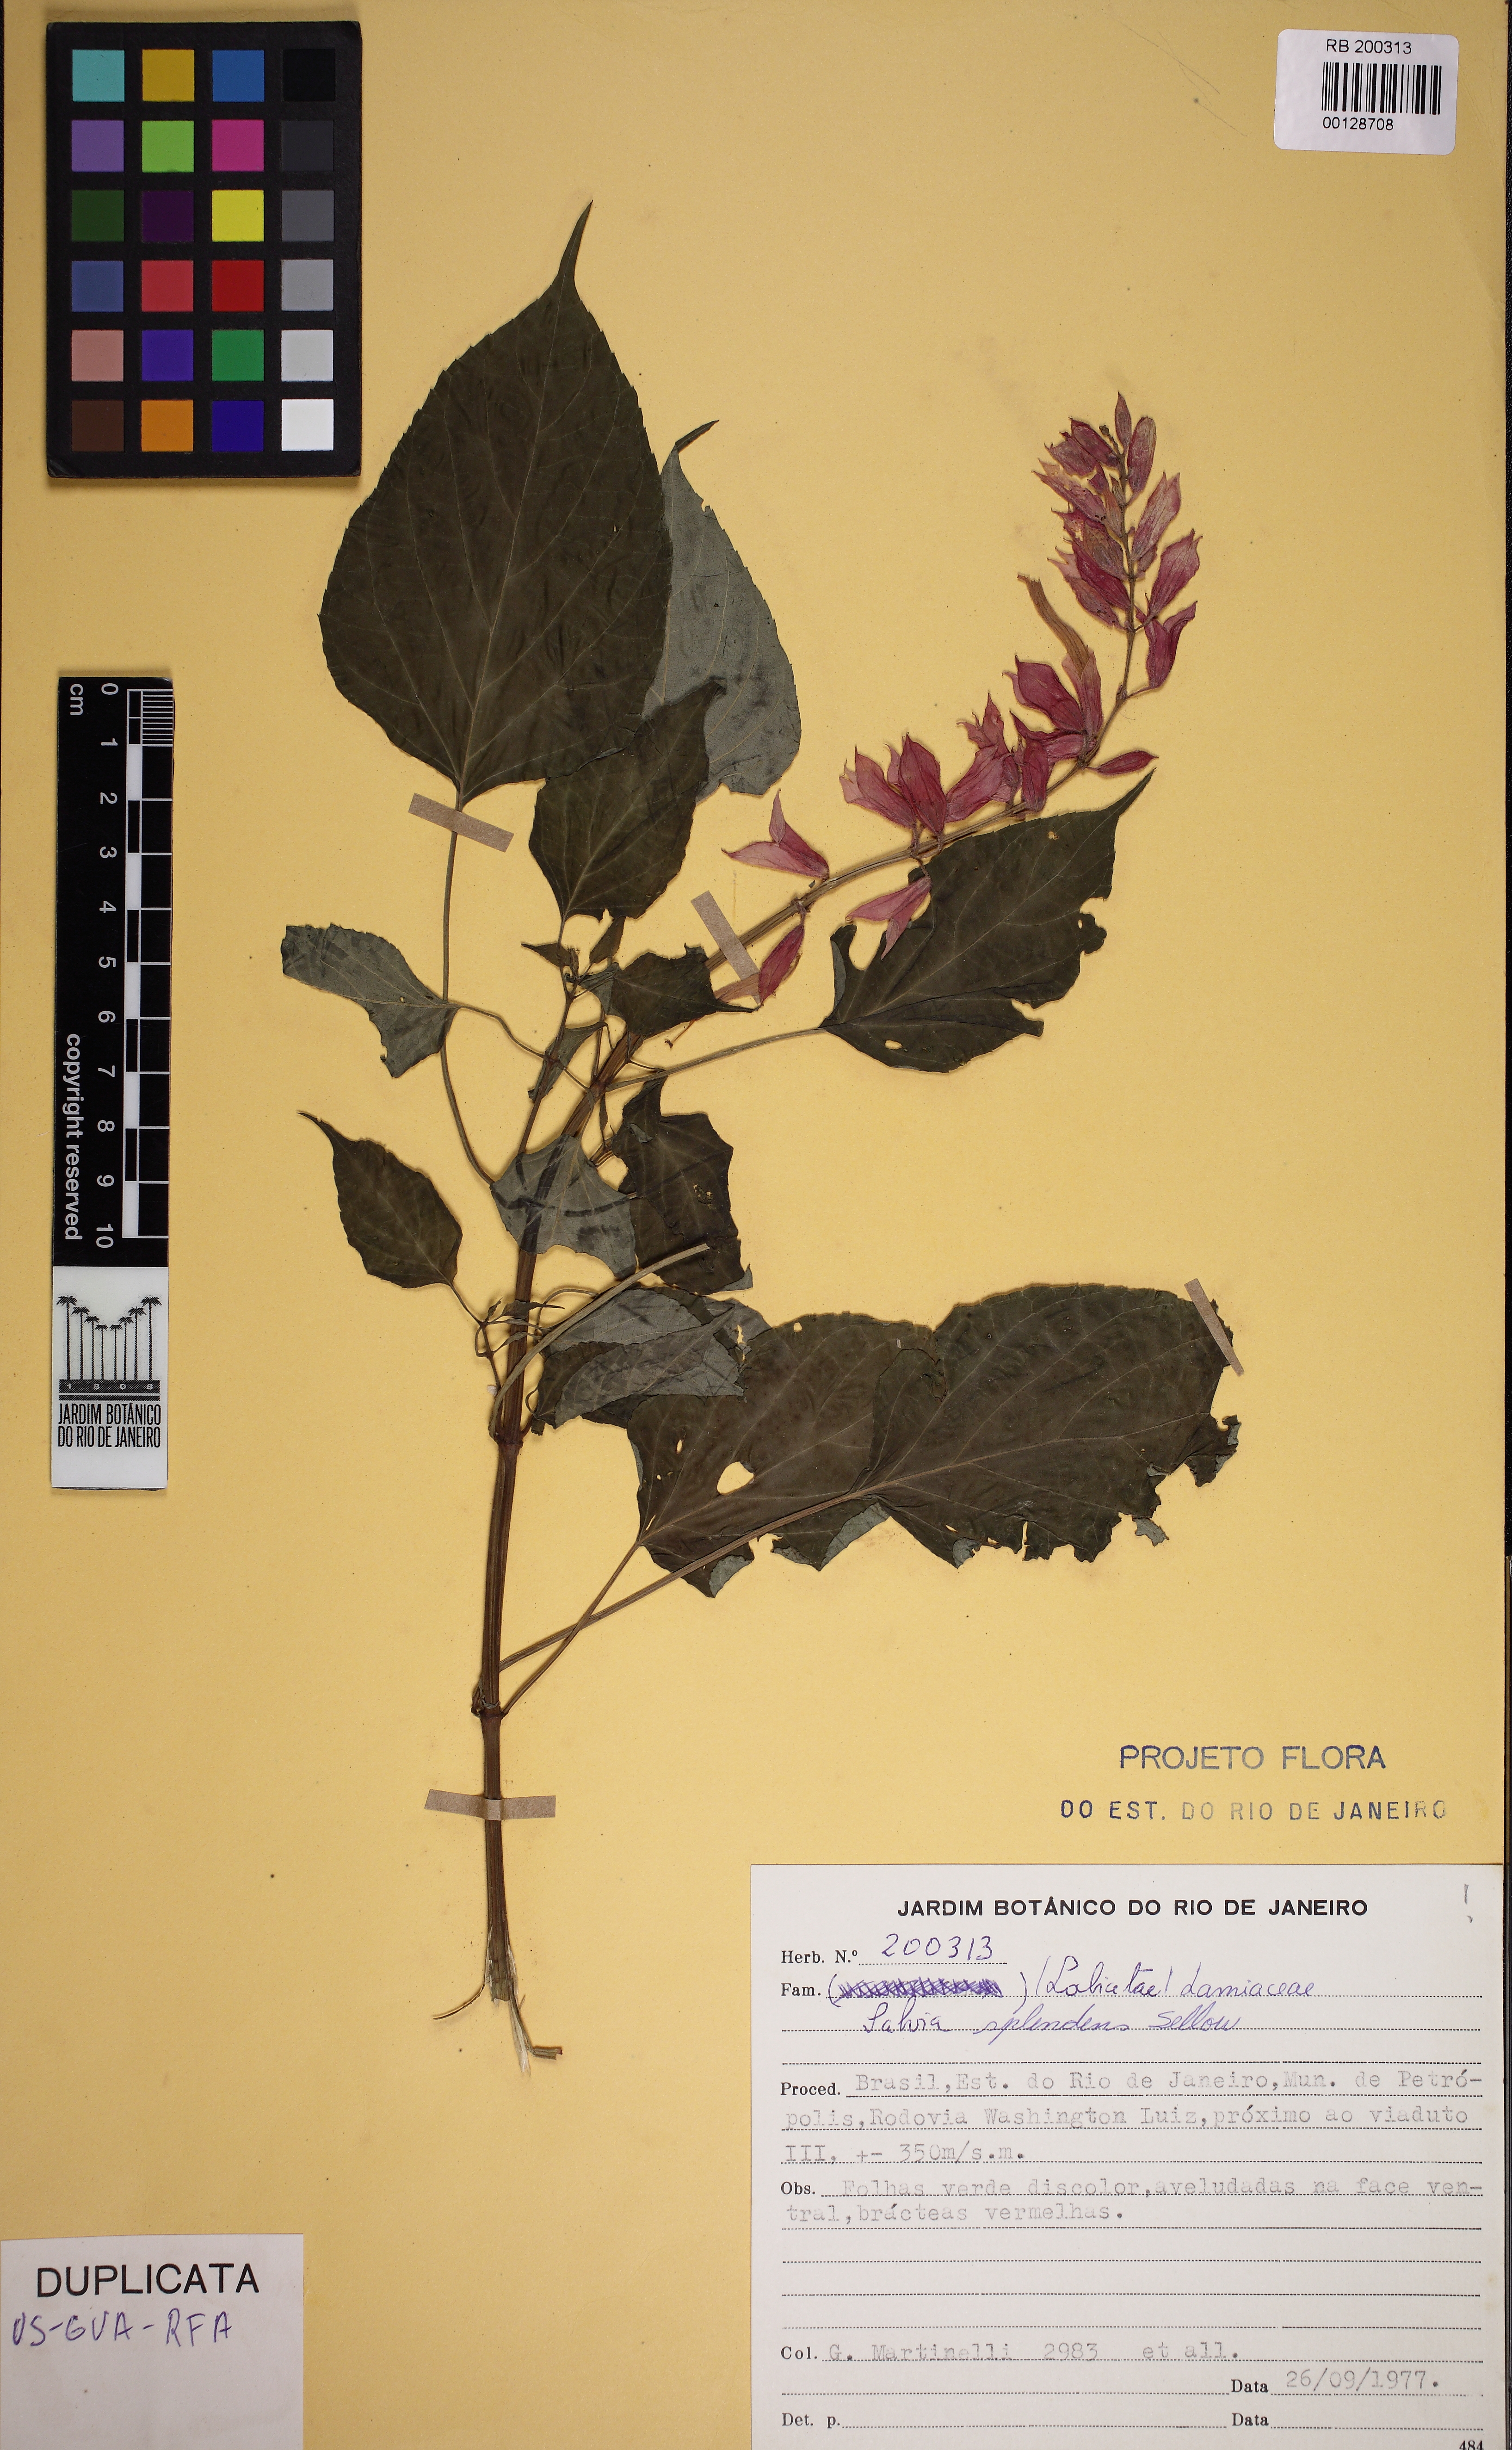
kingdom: Plantae
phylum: Tracheophyta
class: Magnoliopsida
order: Lamiales
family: Lamiaceae
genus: Salvia
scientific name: Salvia splendens
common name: Scarlet sage
